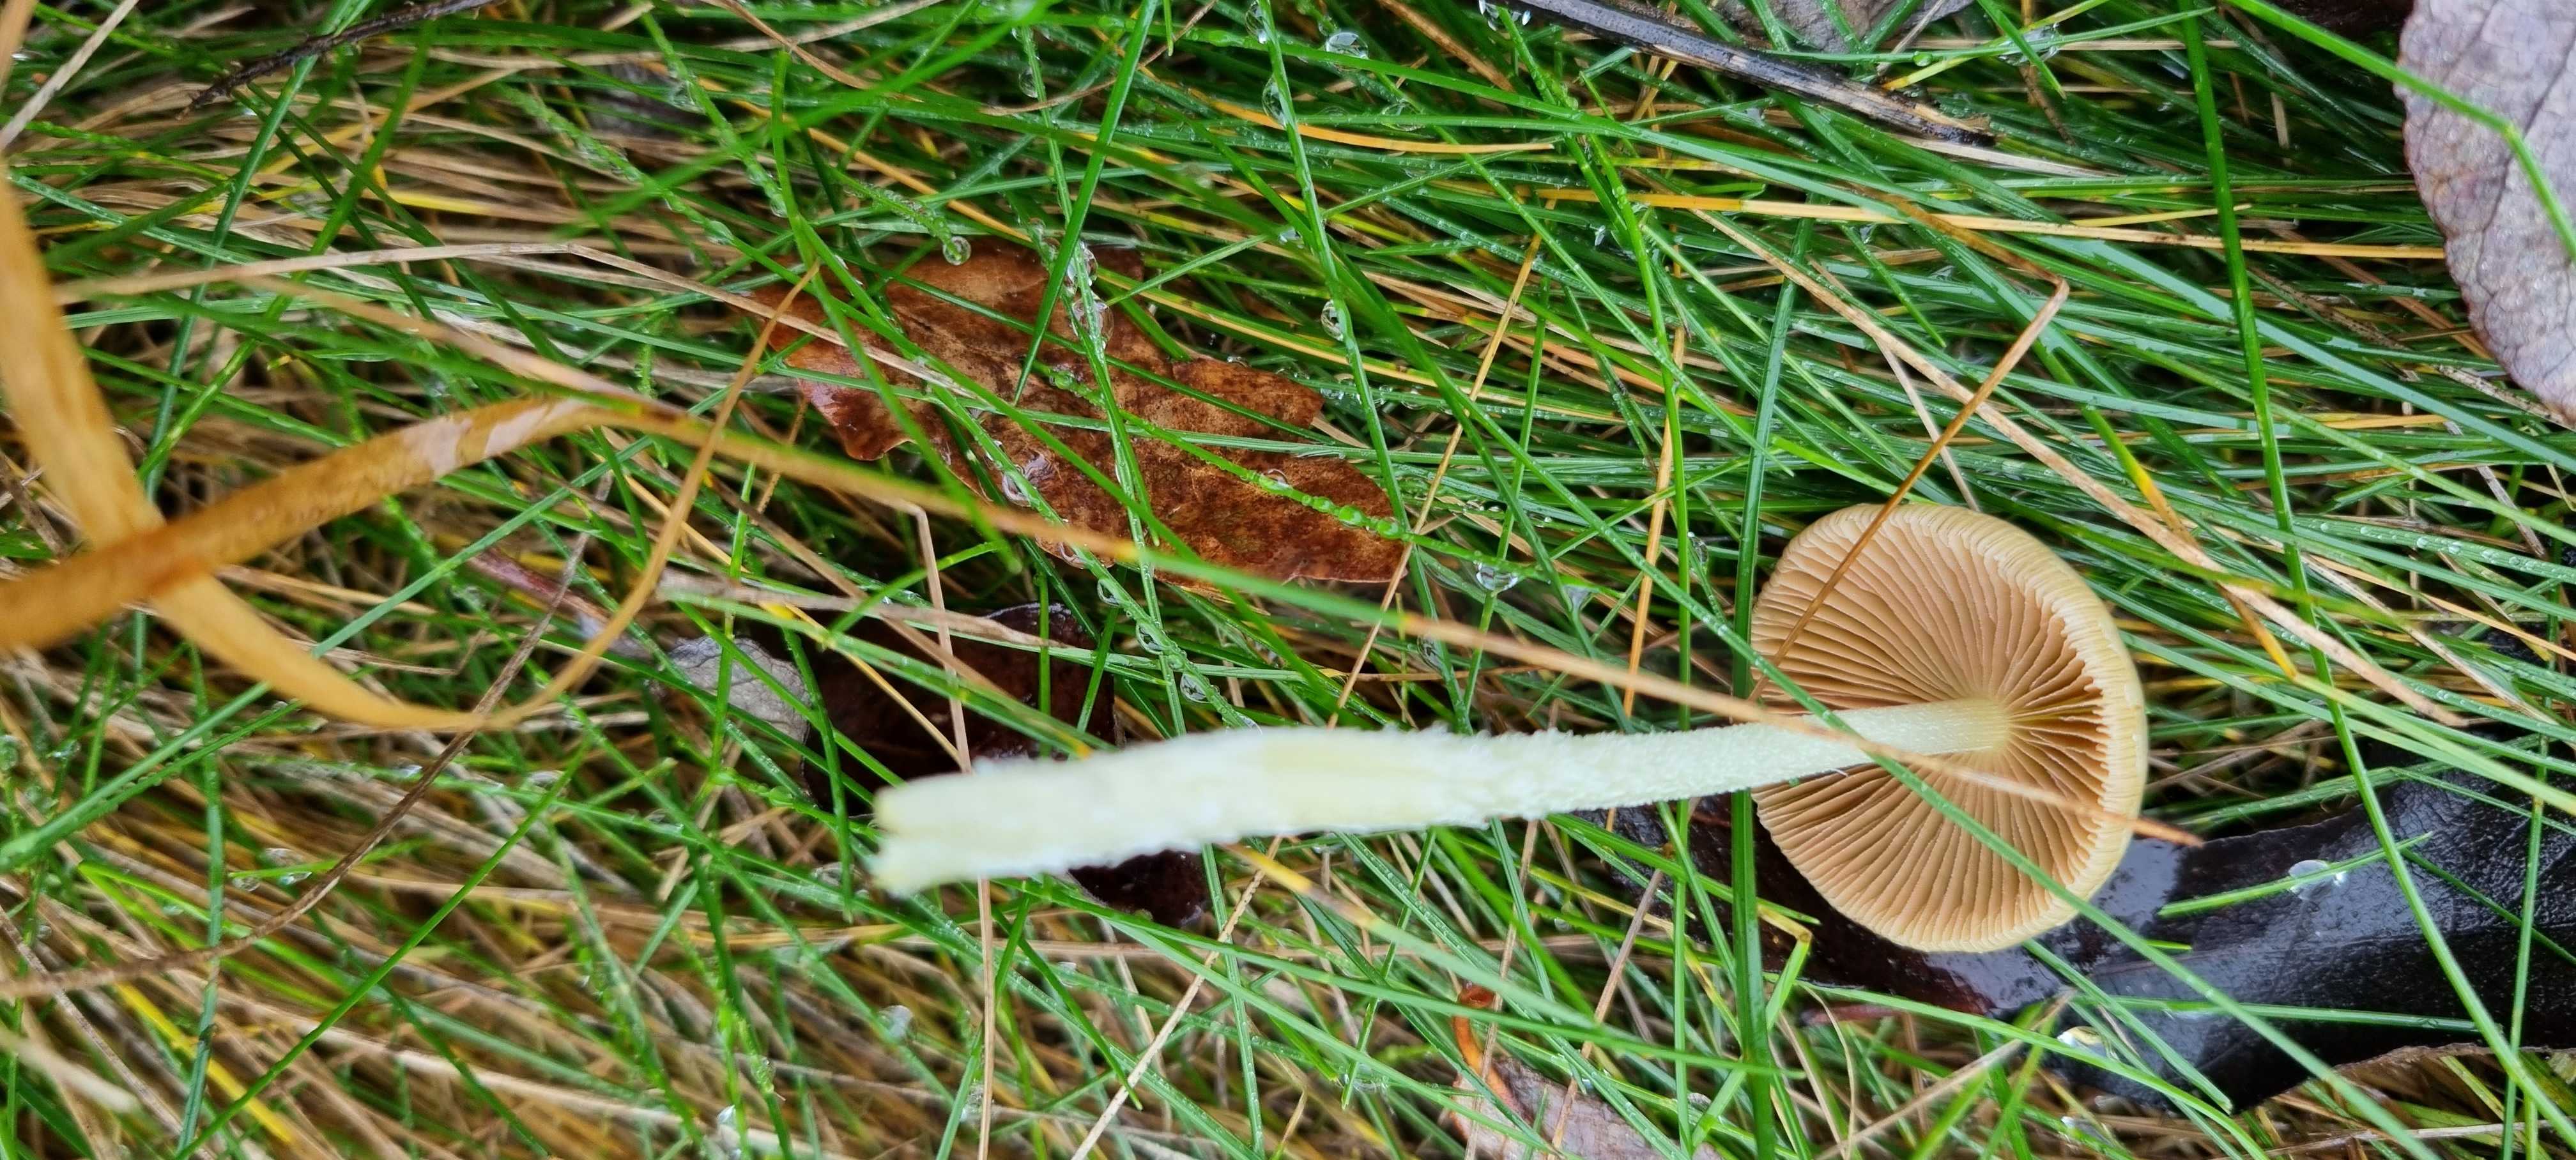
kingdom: Fungi
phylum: Basidiomycota
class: Agaricomycetes
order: Agaricales
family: Bolbitiaceae
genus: Bolbitius
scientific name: Bolbitius titubans
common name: almindelig gulhat
